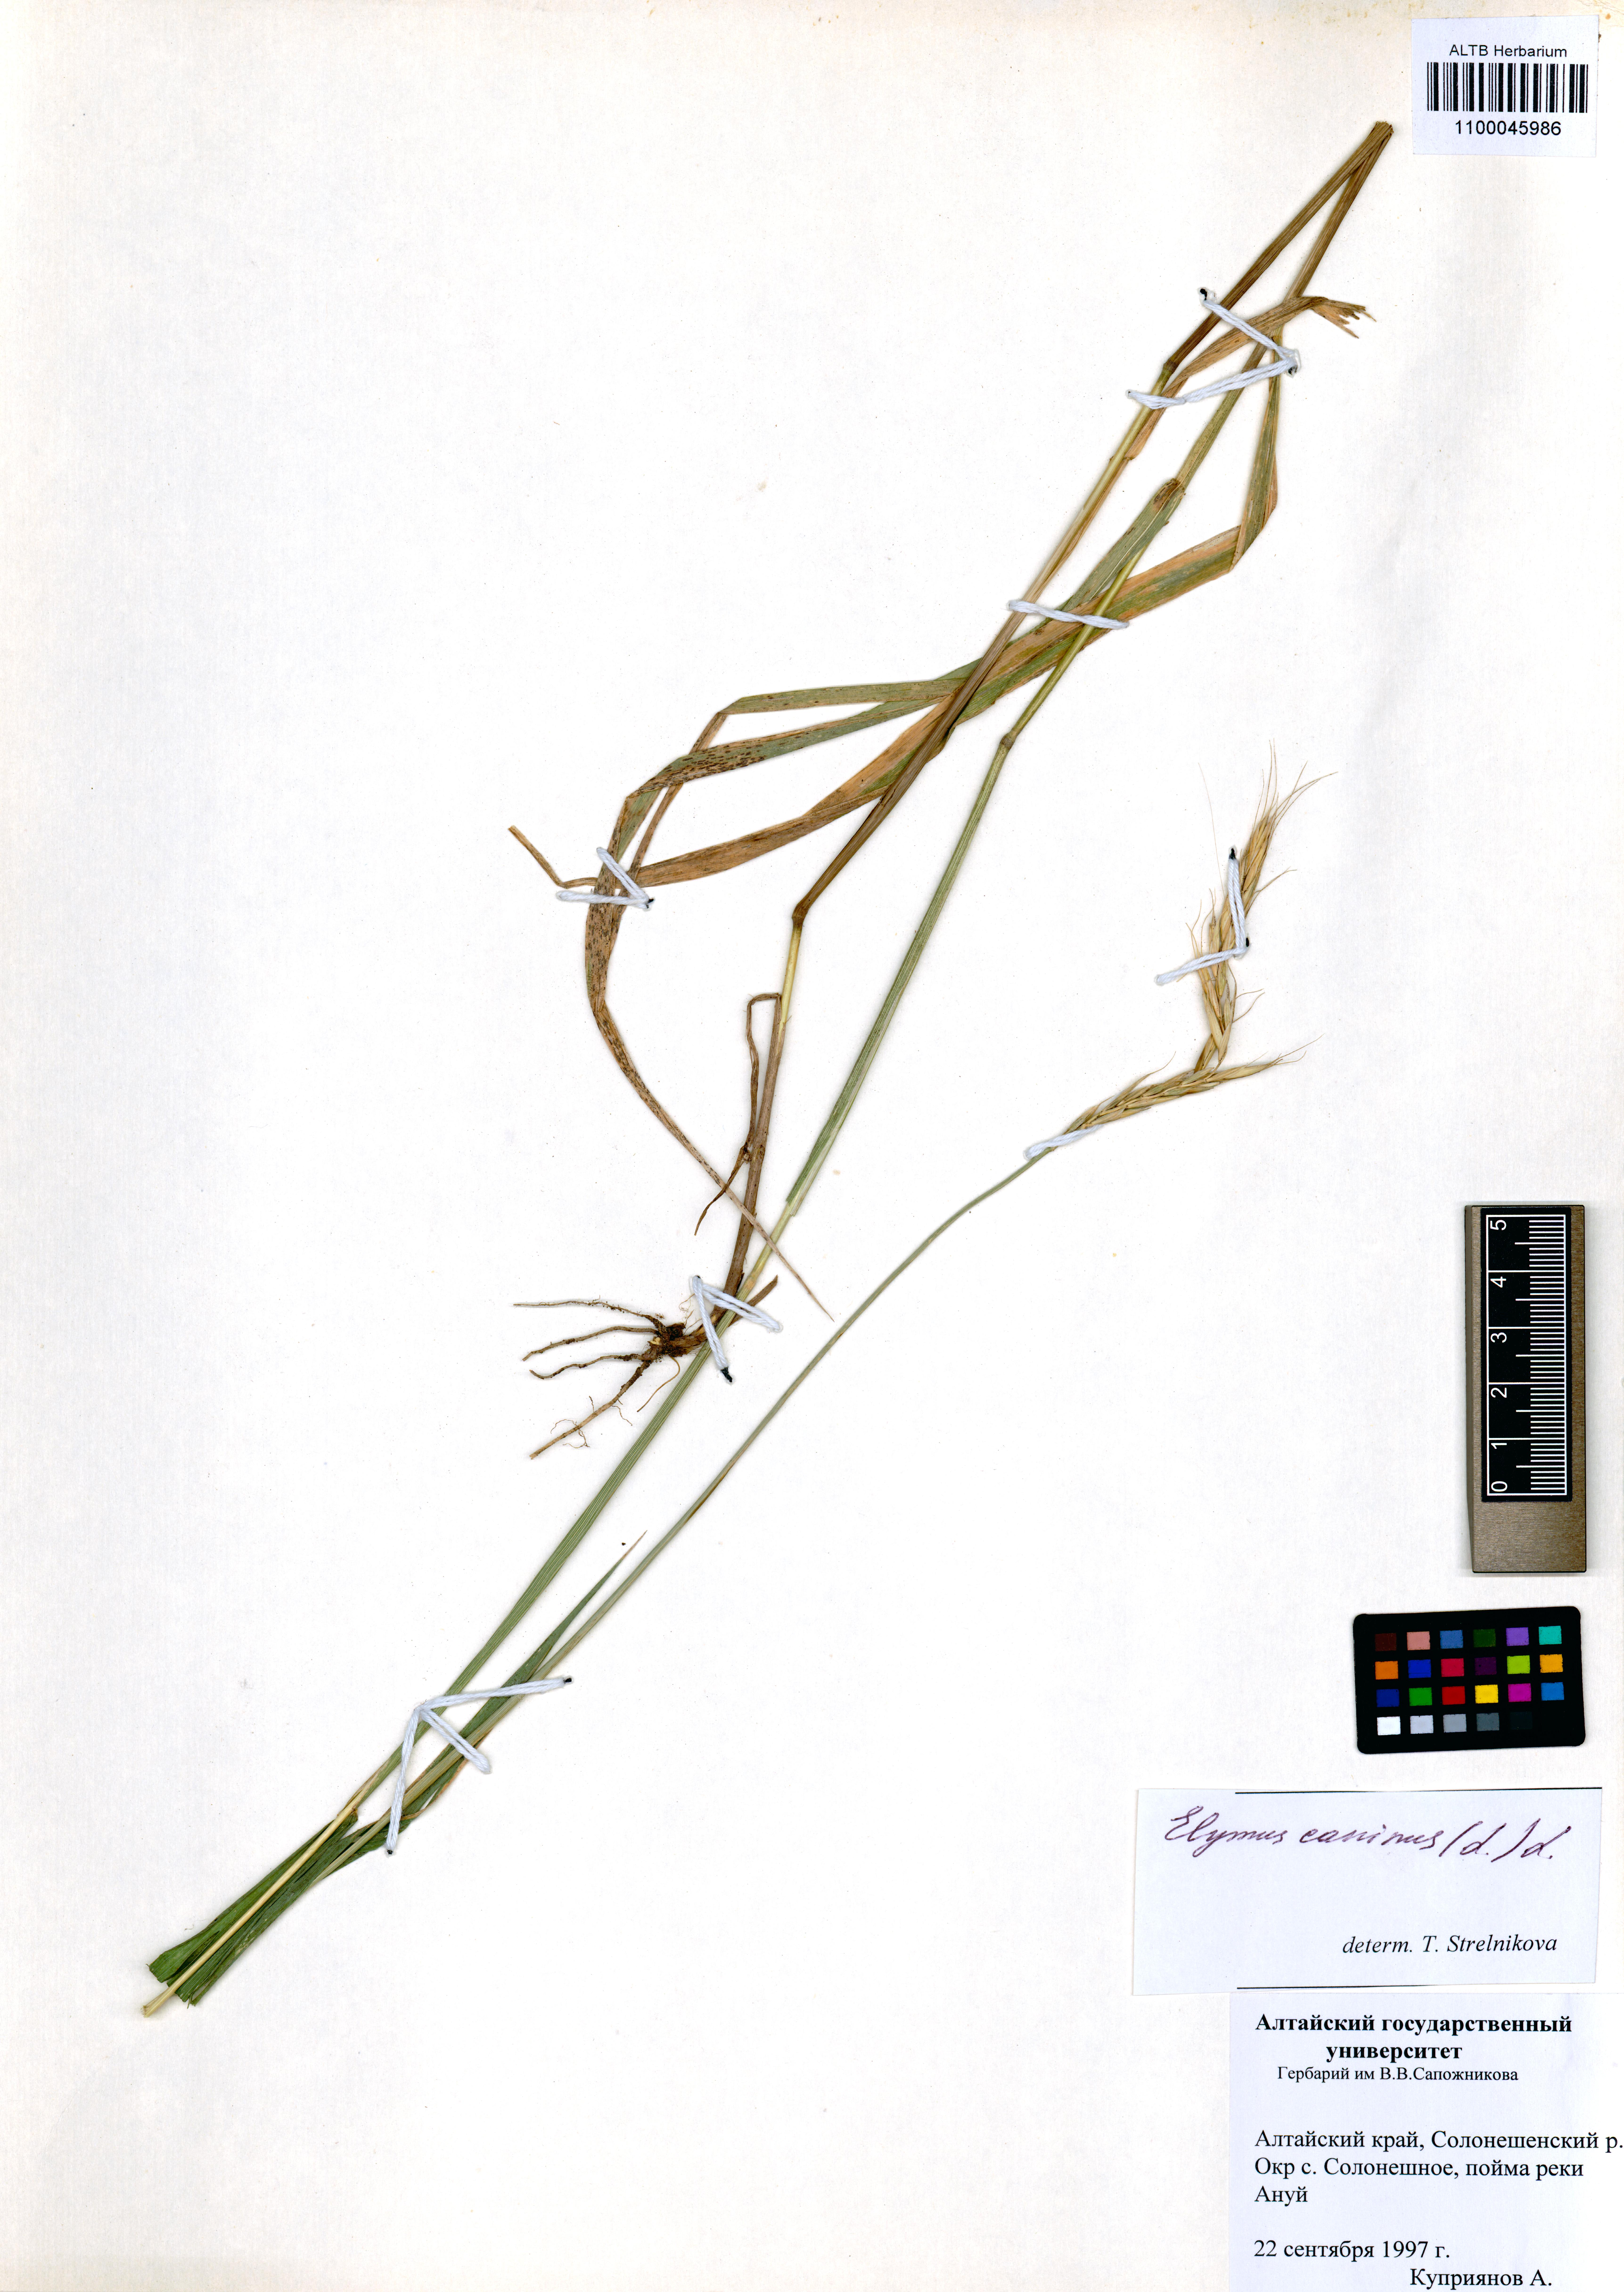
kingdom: Plantae
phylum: Tracheophyta
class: Liliopsida
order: Poales
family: Poaceae
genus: Elymus
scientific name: Elymus caninus
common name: Bearded couch
